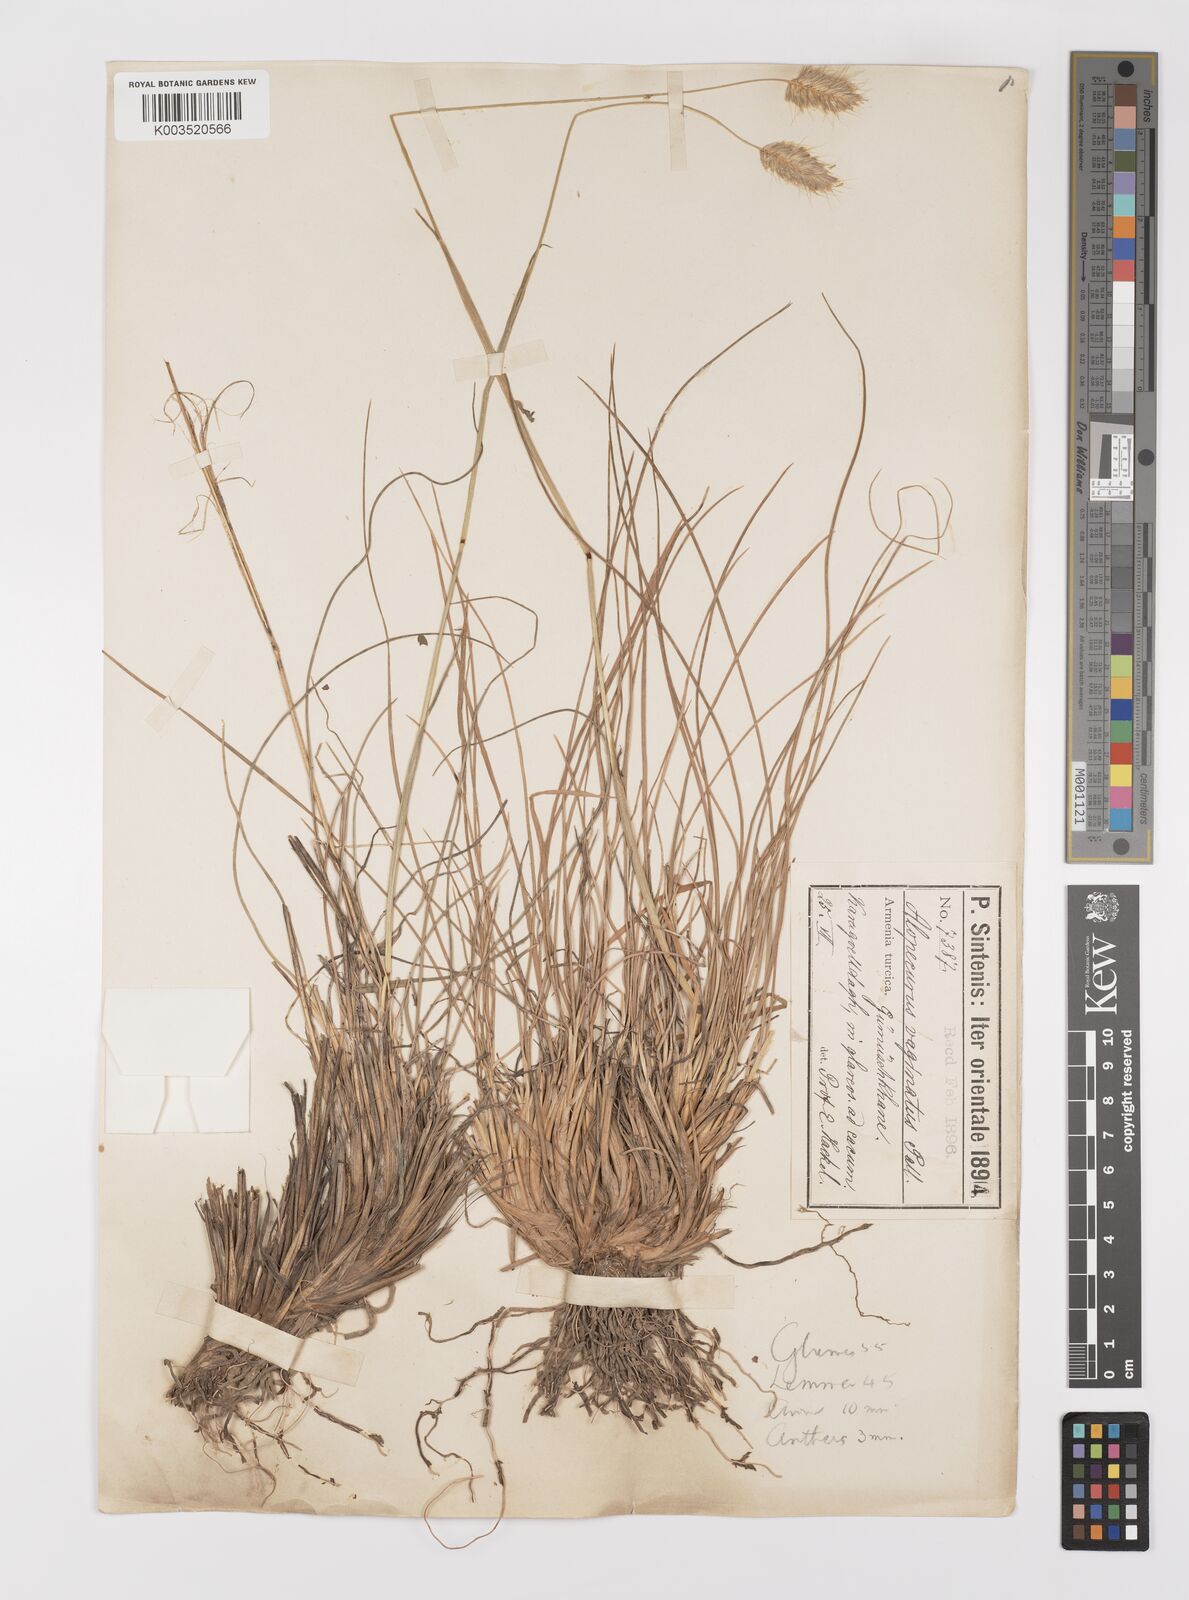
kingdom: Plantae
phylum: Tracheophyta
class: Liliopsida
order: Poales
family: Poaceae
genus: Alopecurus
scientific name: Alopecurus textilis
